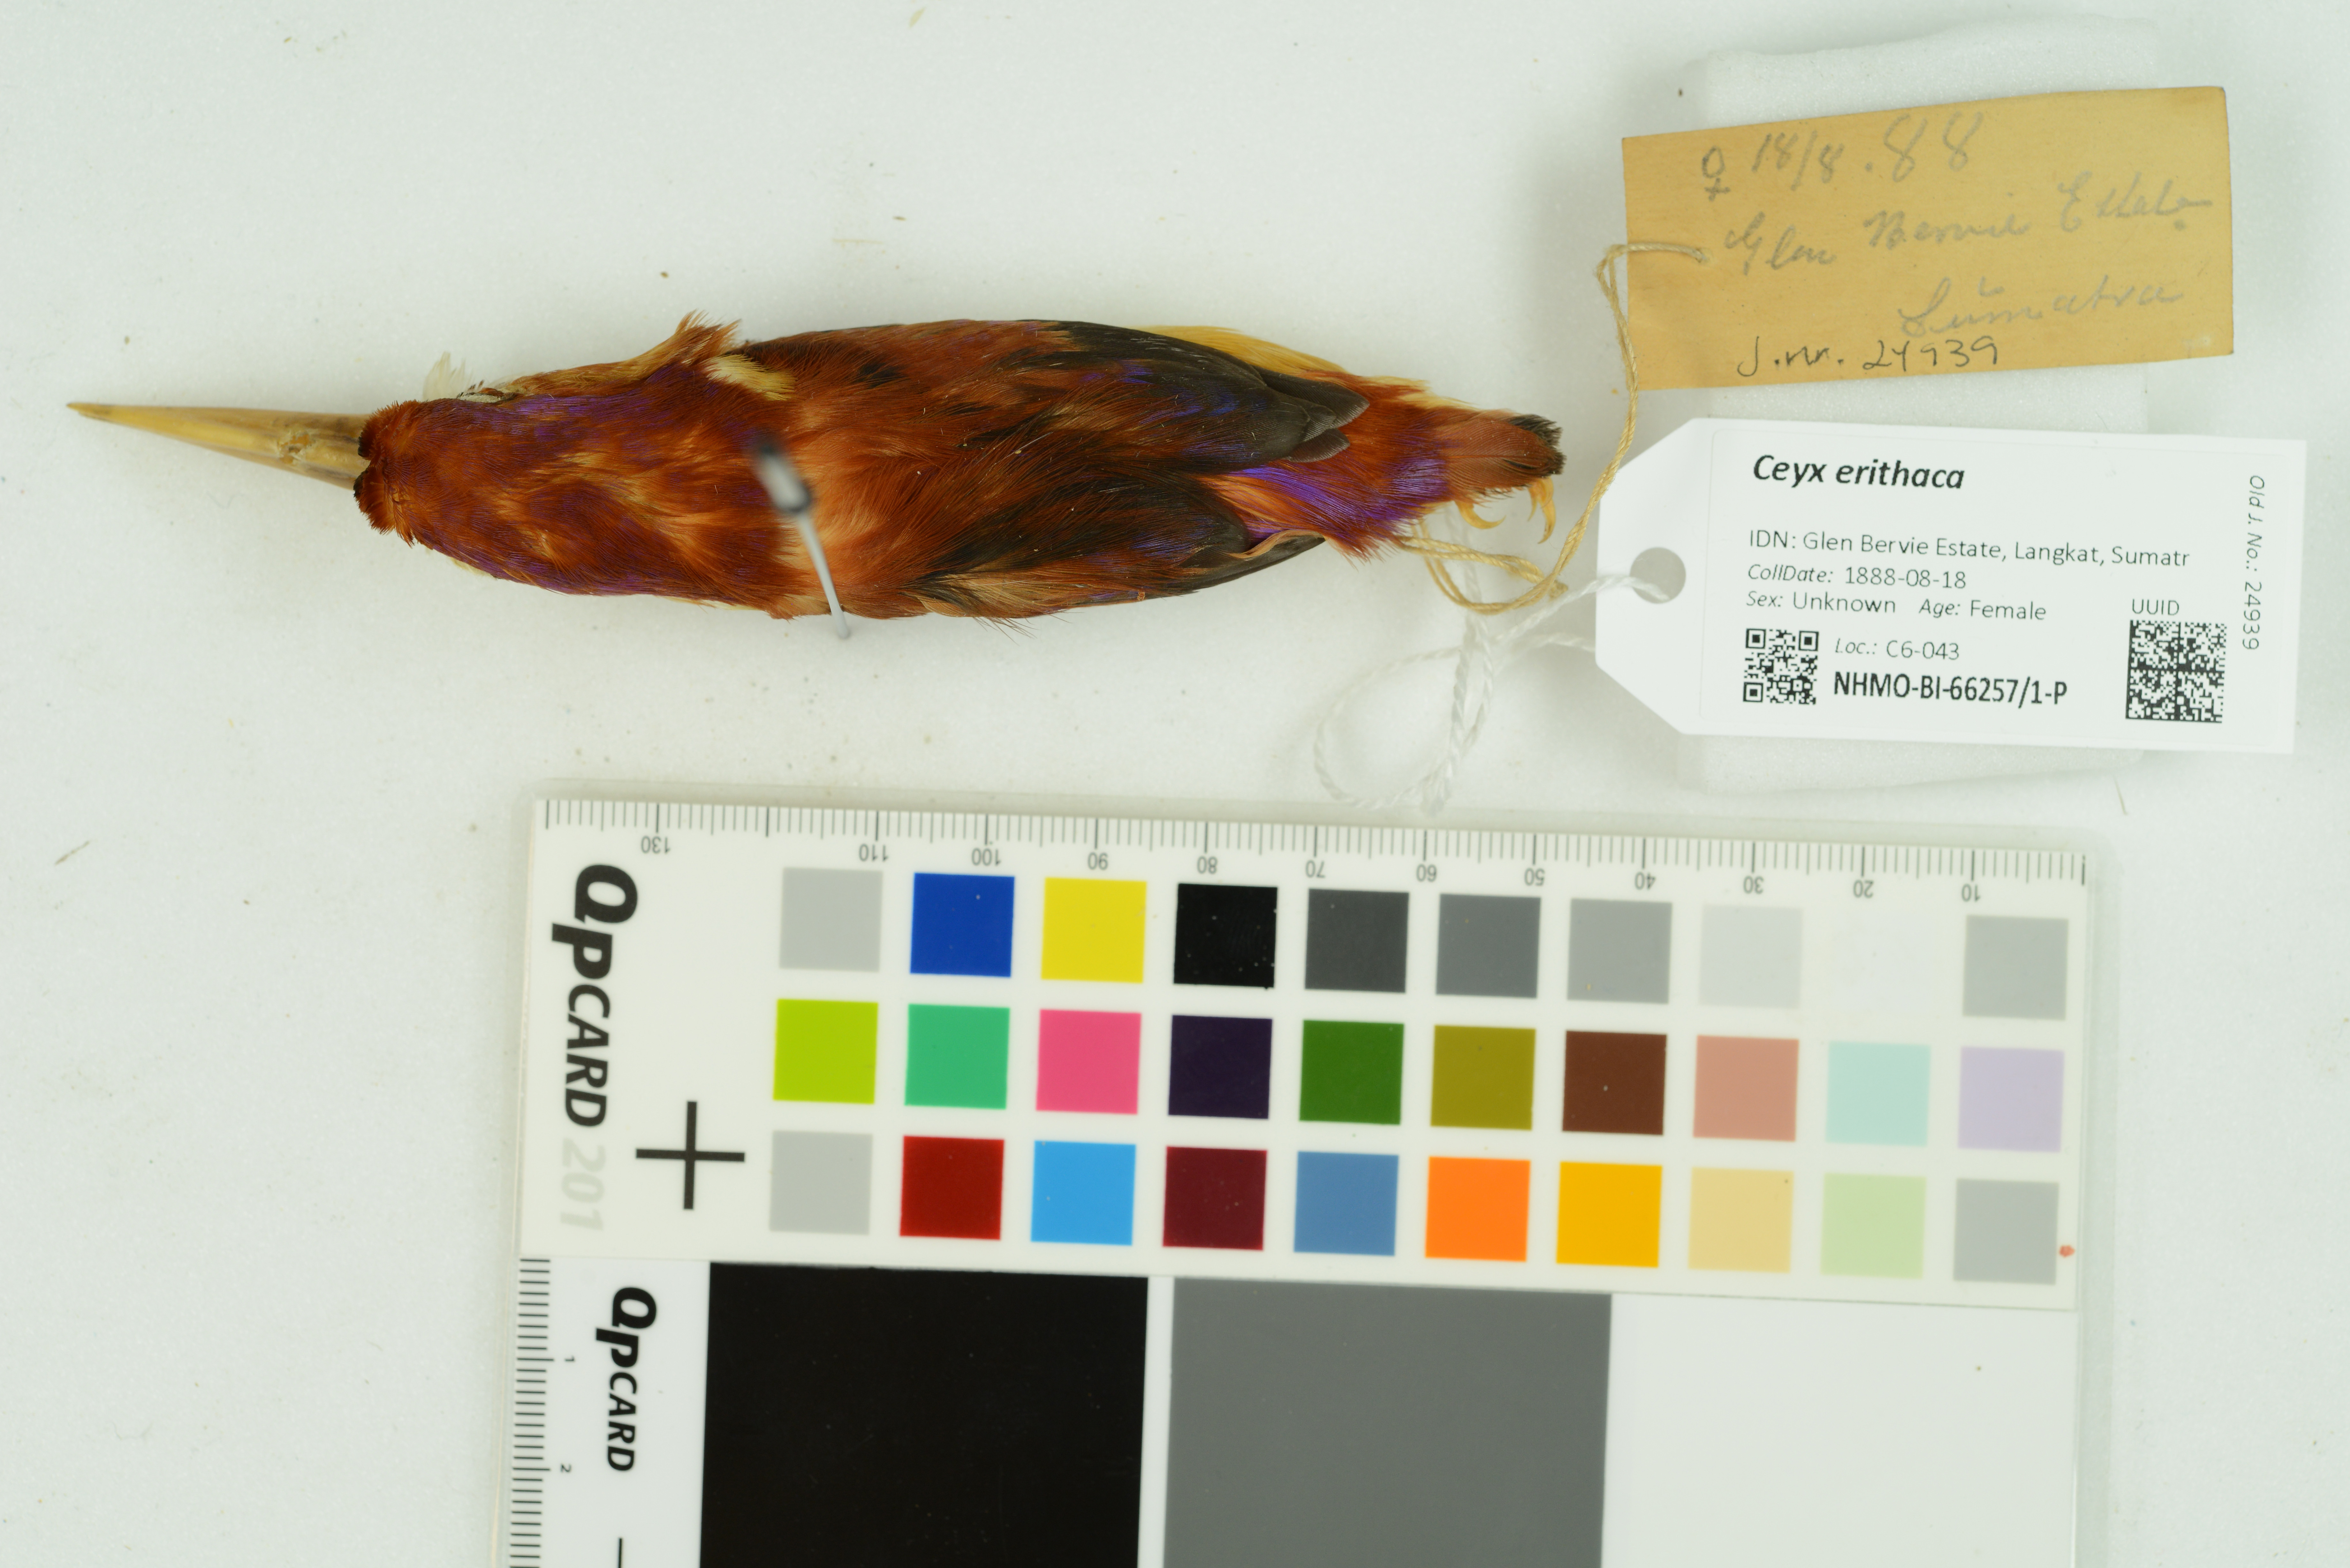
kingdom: Animalia
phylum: Chordata
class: Aves
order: Coraciiformes
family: Alcedinidae
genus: Ceyx
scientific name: Ceyx erithaca
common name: Oriental dwarf kingfisher
